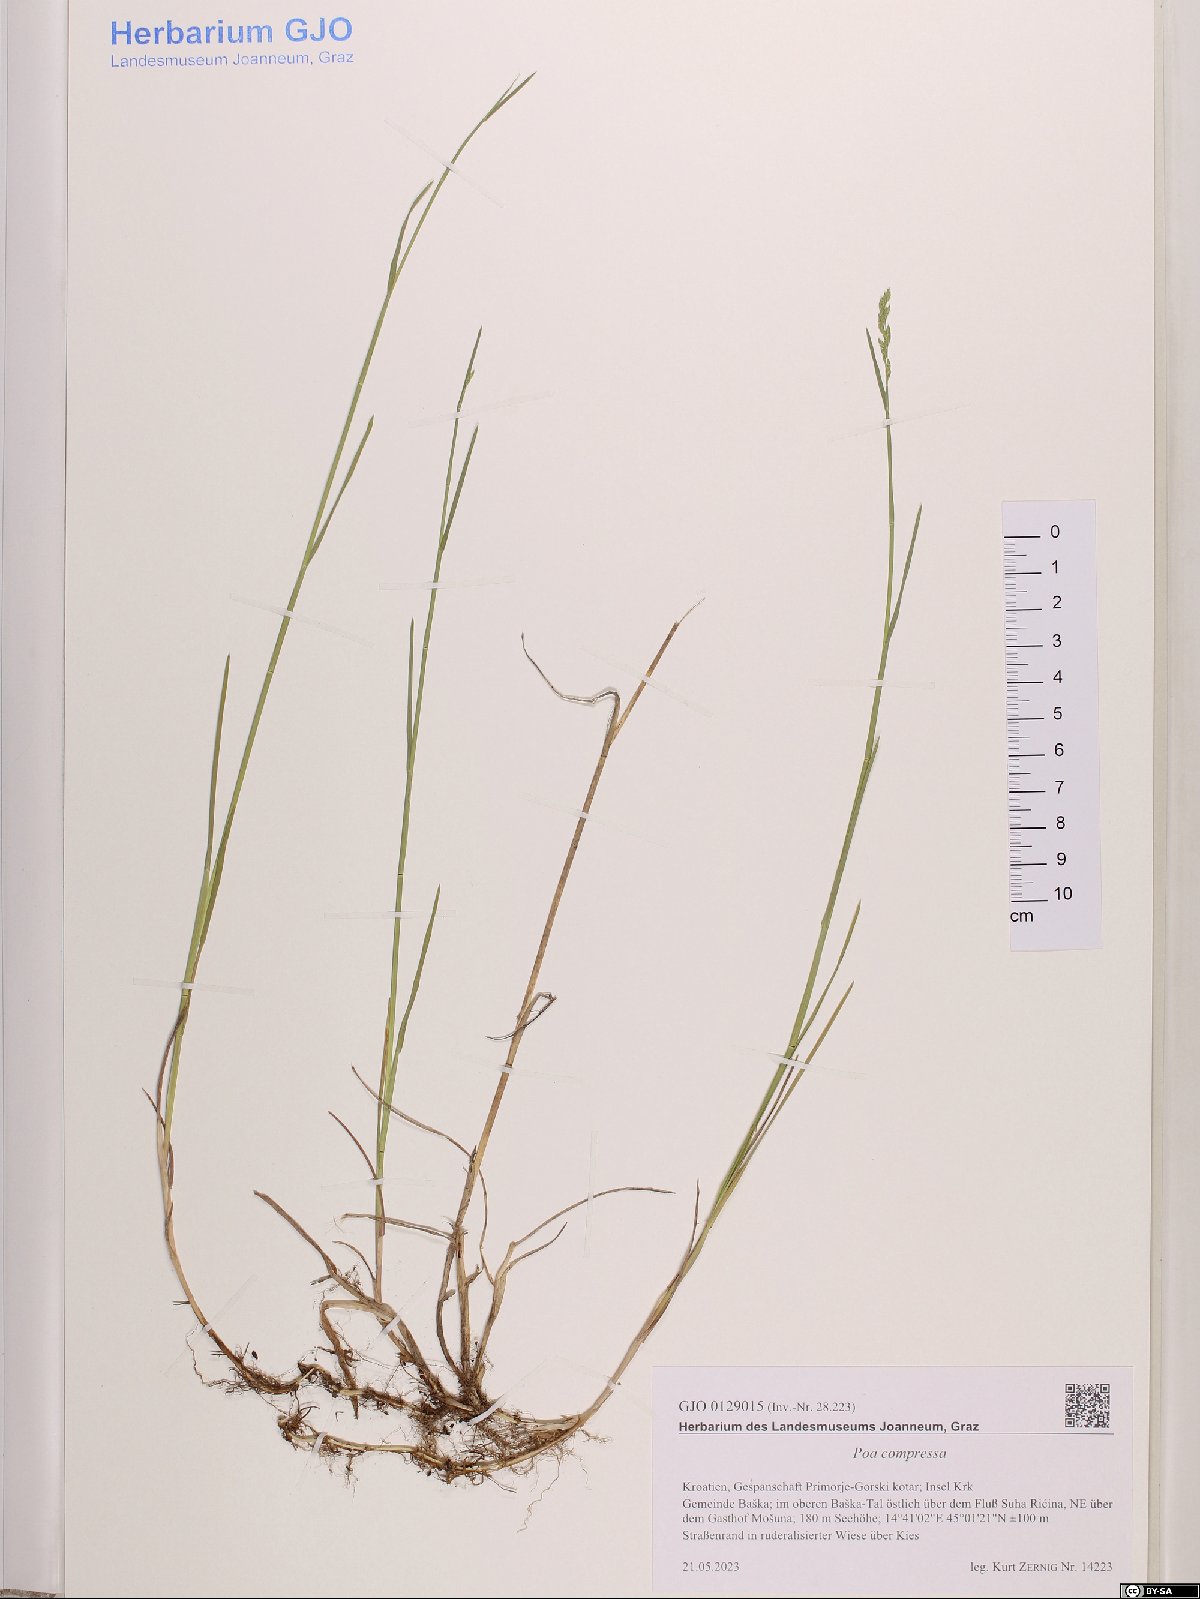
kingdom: Plantae
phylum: Tracheophyta
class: Liliopsida
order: Poales
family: Poaceae
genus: Poa
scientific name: Poa compressa
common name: Canada bluegrass
